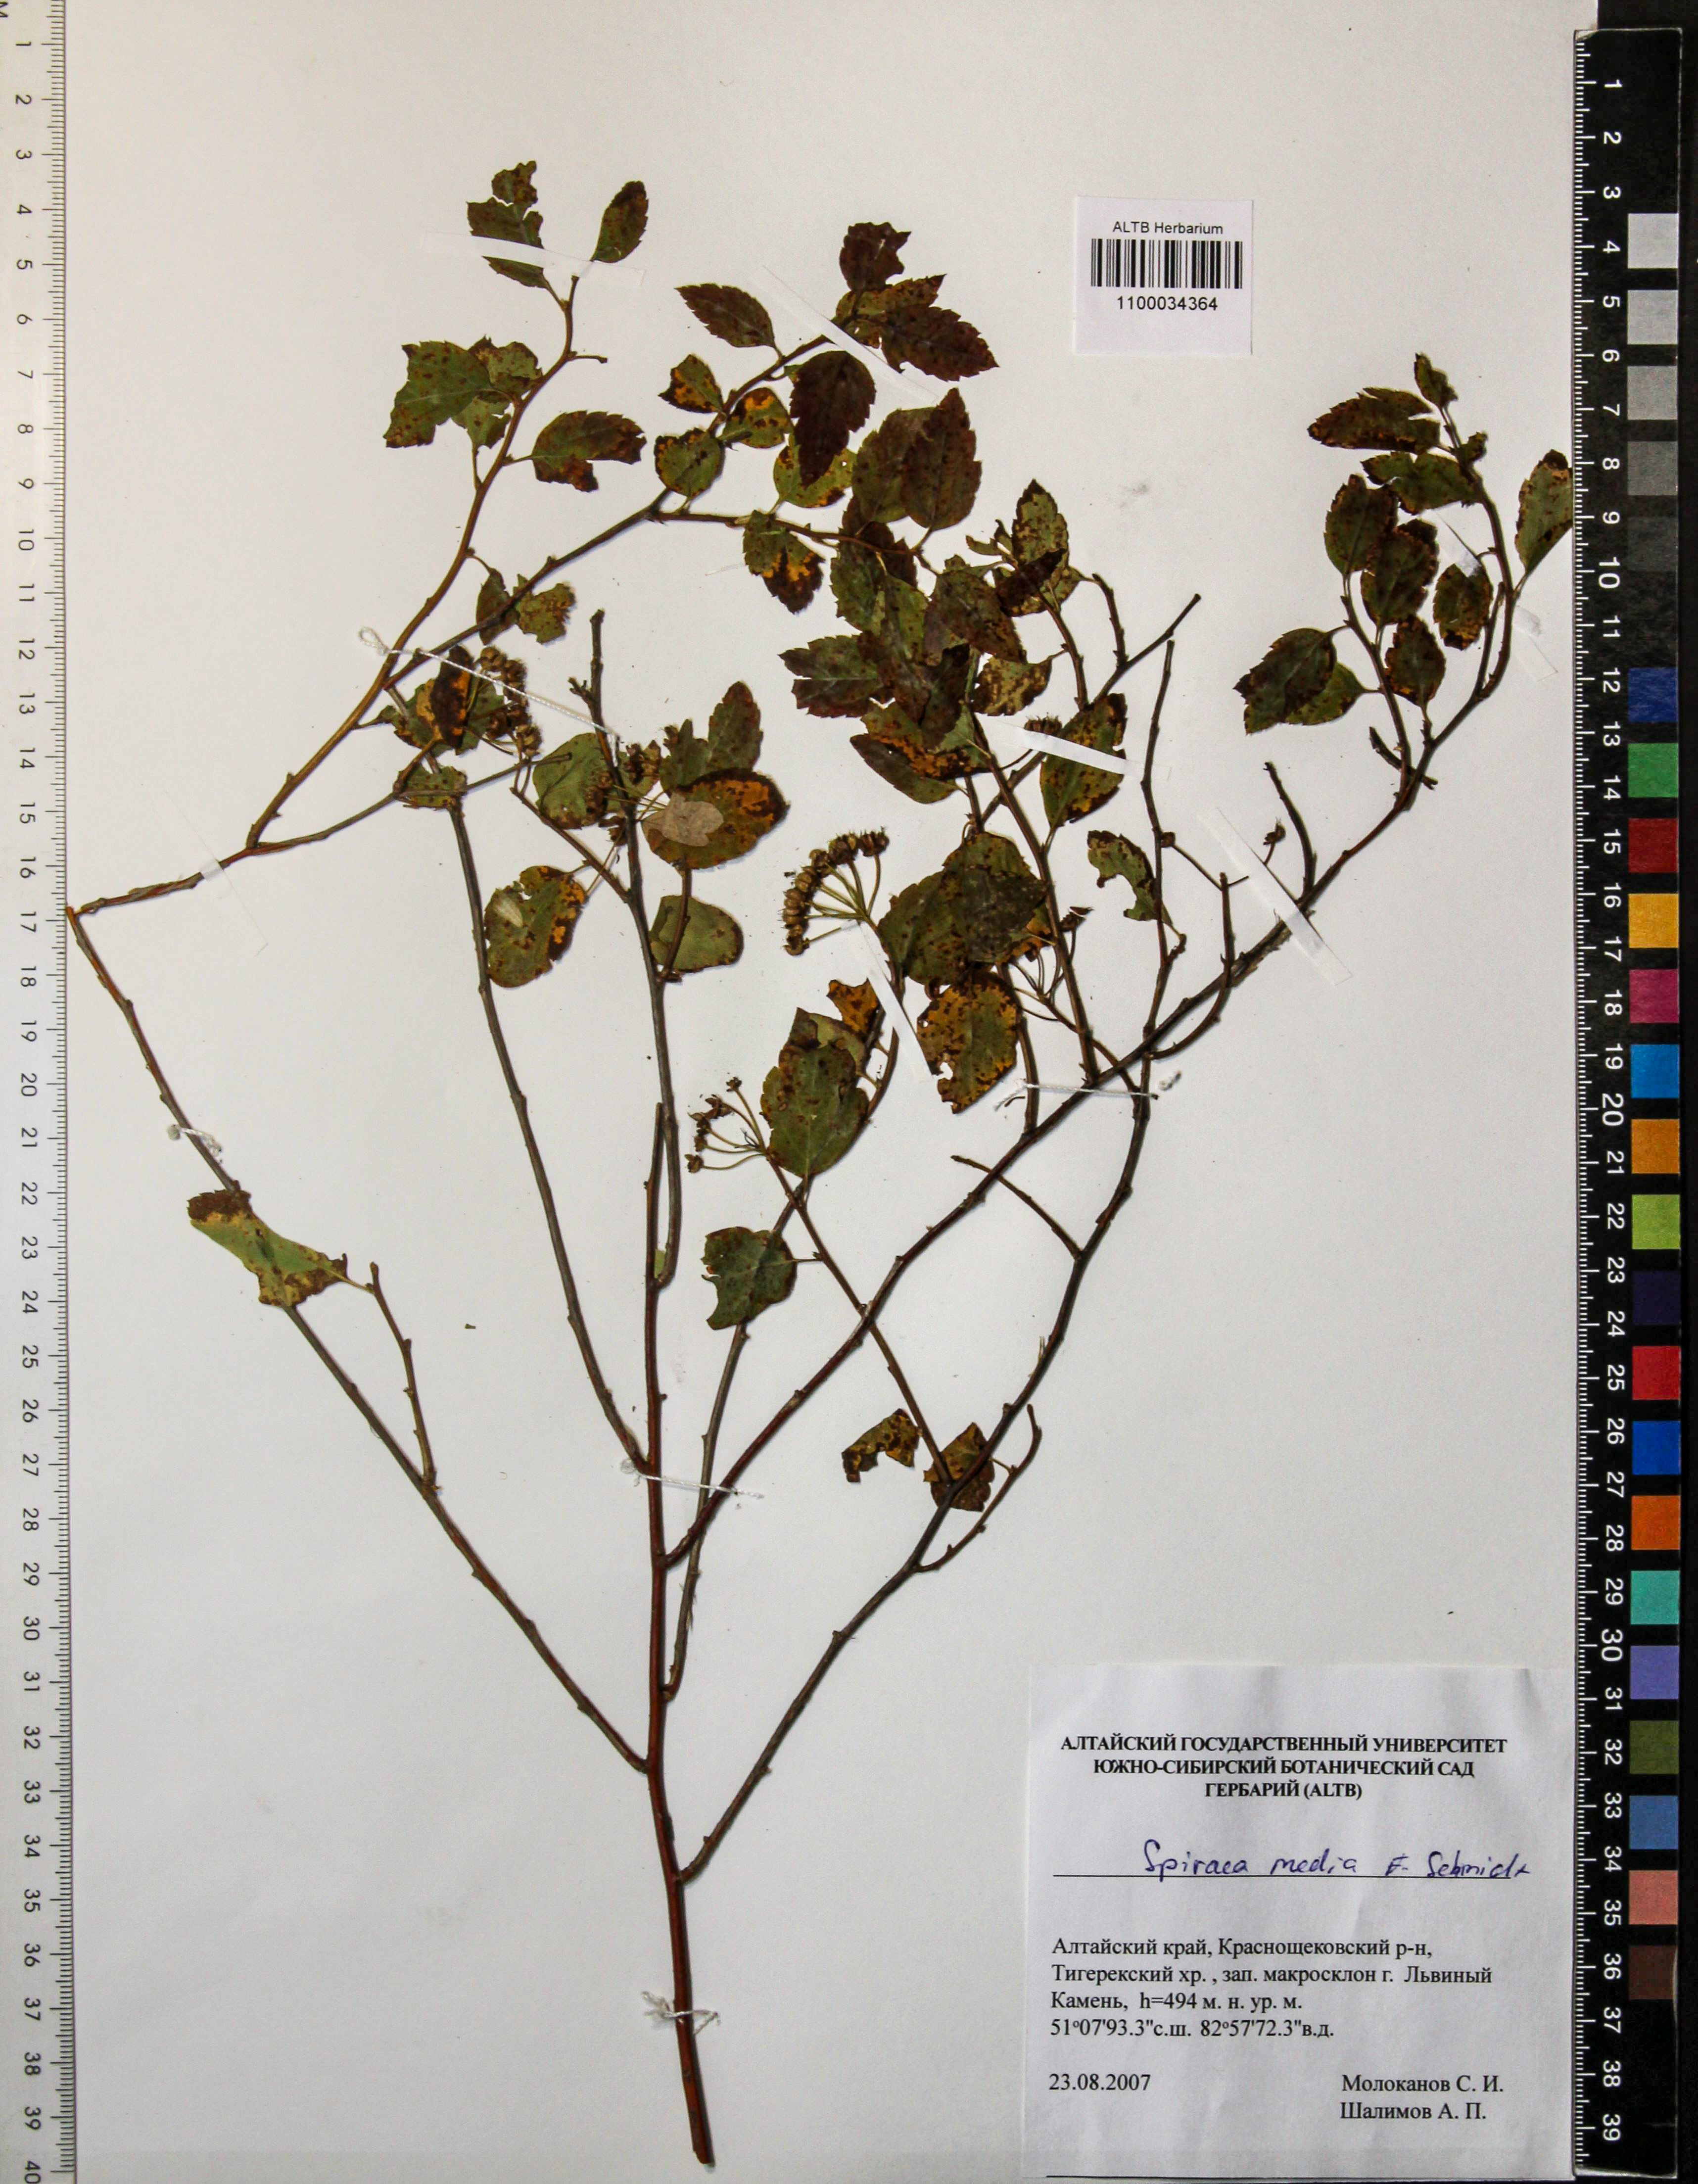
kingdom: Plantae
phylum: Tracheophyta
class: Magnoliopsida
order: Rosales
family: Rosaceae
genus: Spiraea
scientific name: Spiraea media
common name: Russian spiraea
